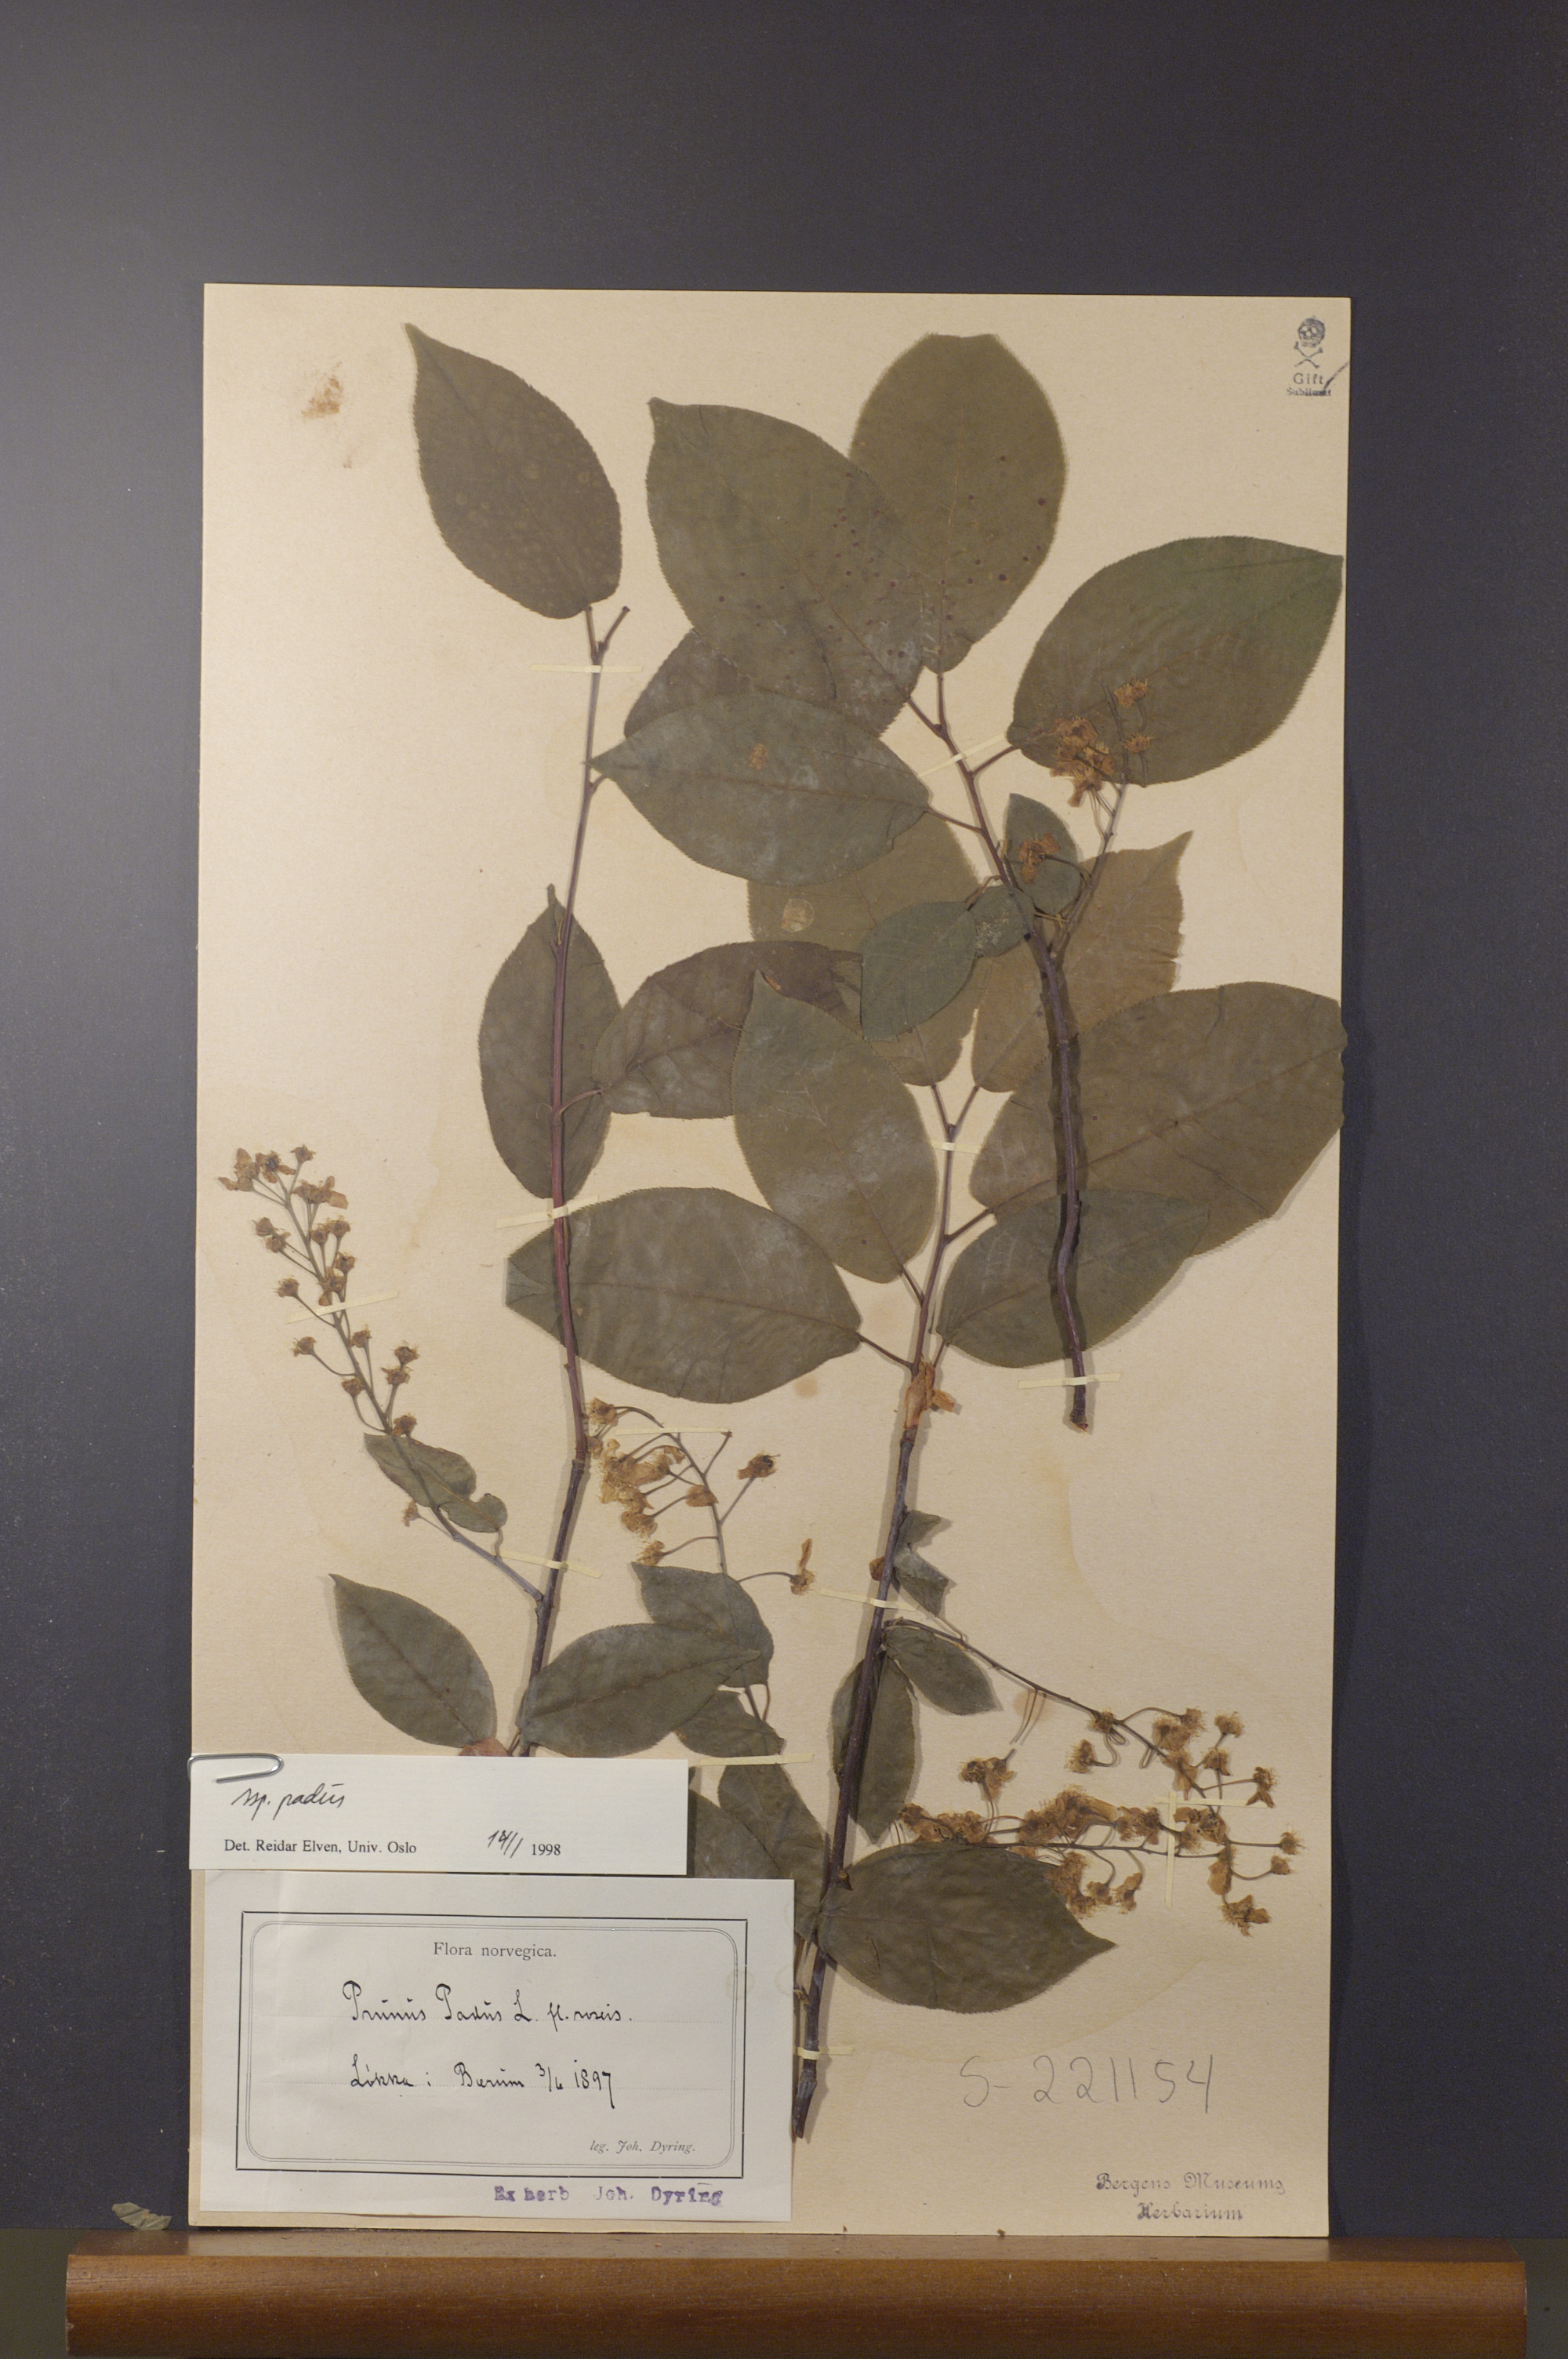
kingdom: Plantae
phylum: Tracheophyta
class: Magnoliopsida
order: Rosales
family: Rosaceae
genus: Prunus
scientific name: Prunus padus
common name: Bird cherry
